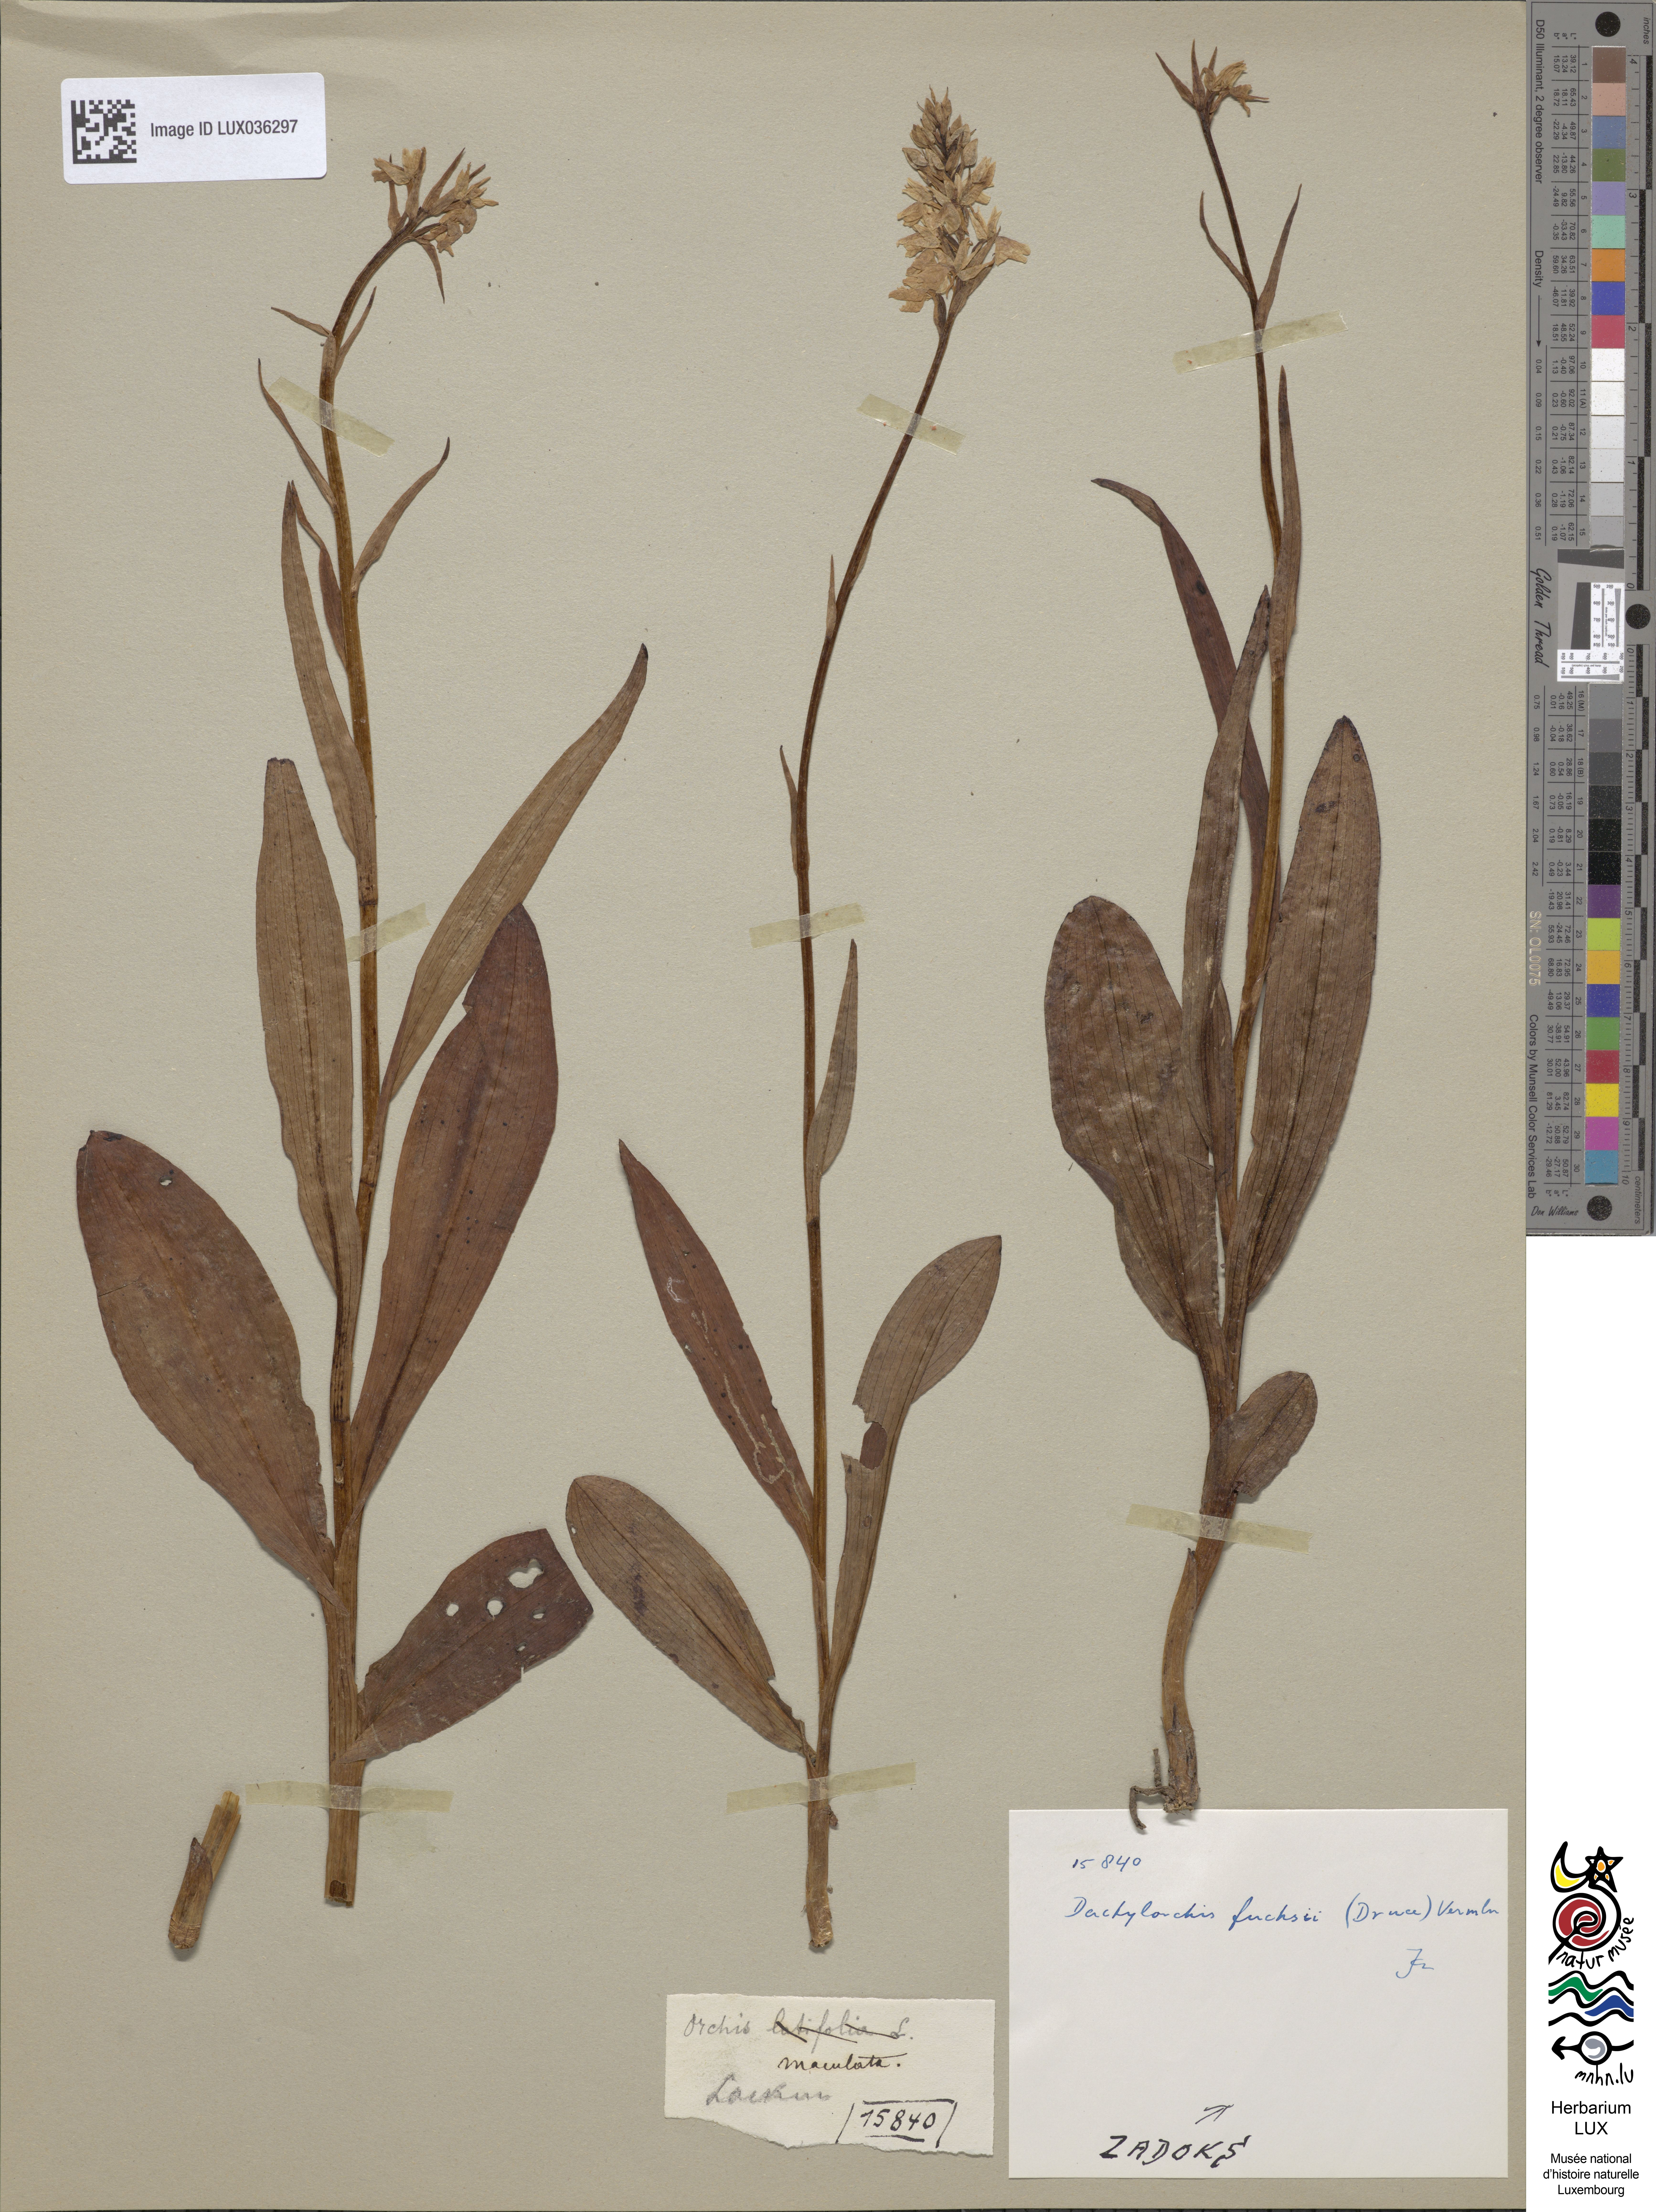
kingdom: Plantae
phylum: Tracheophyta
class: Liliopsida
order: Asparagales
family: Orchidaceae
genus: Dactylorhiza
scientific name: Dactylorhiza maculata
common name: Heath spotted-orchid
